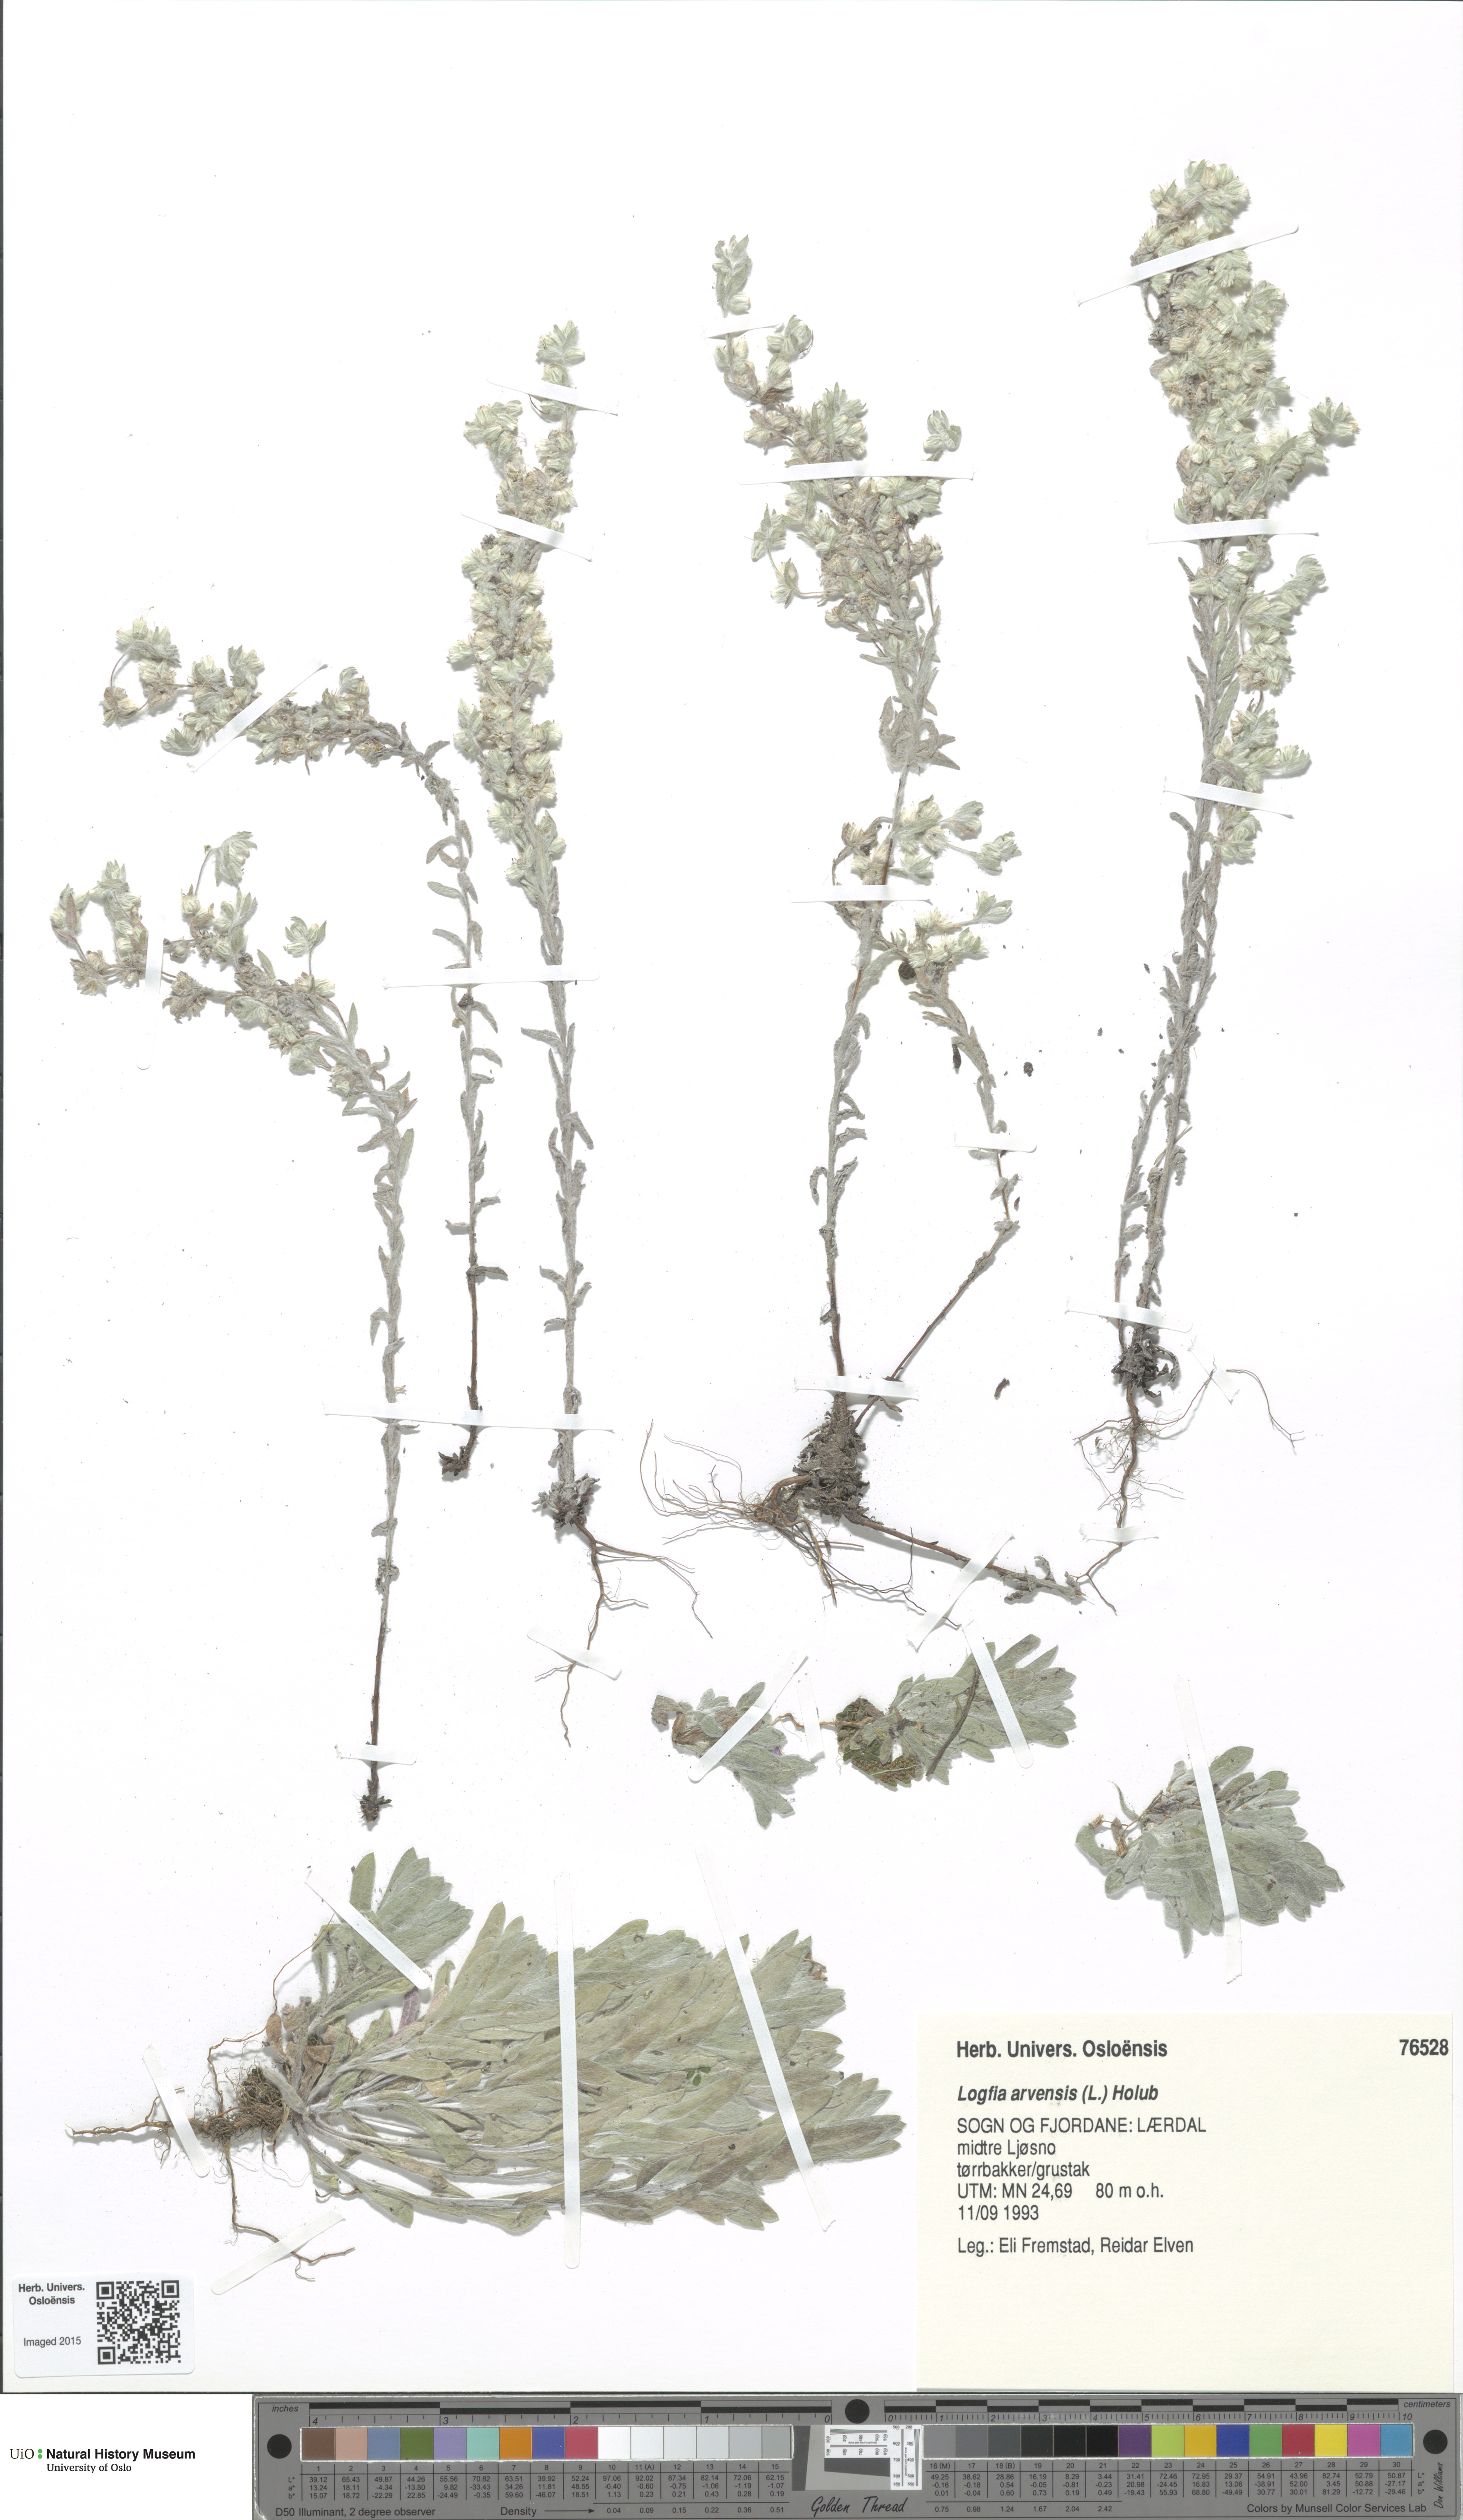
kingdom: Plantae
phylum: Tracheophyta
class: Magnoliopsida
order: Asterales
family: Asteraceae
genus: Filago
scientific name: Filago arvensis
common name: Field cudweed
